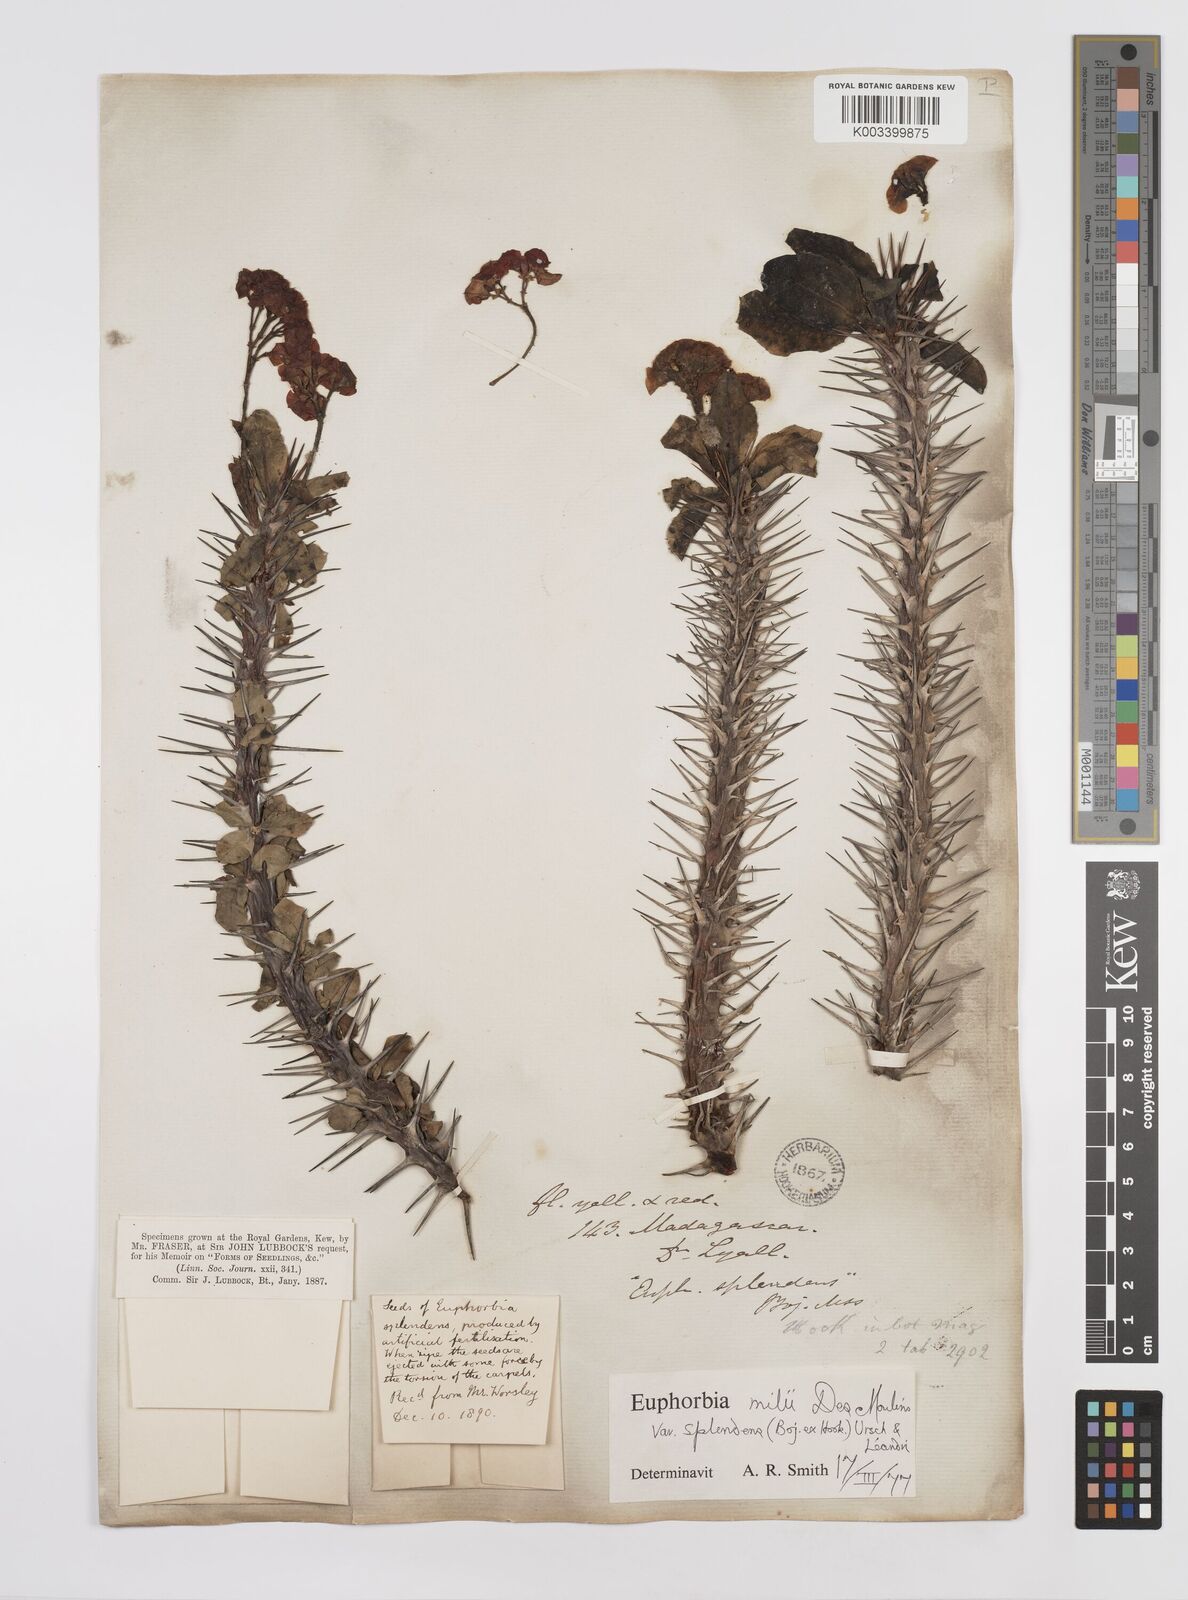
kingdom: Plantae
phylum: Tracheophyta
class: Magnoliopsida
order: Malpighiales
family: Euphorbiaceae
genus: Euphorbia
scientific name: Euphorbia splendens
